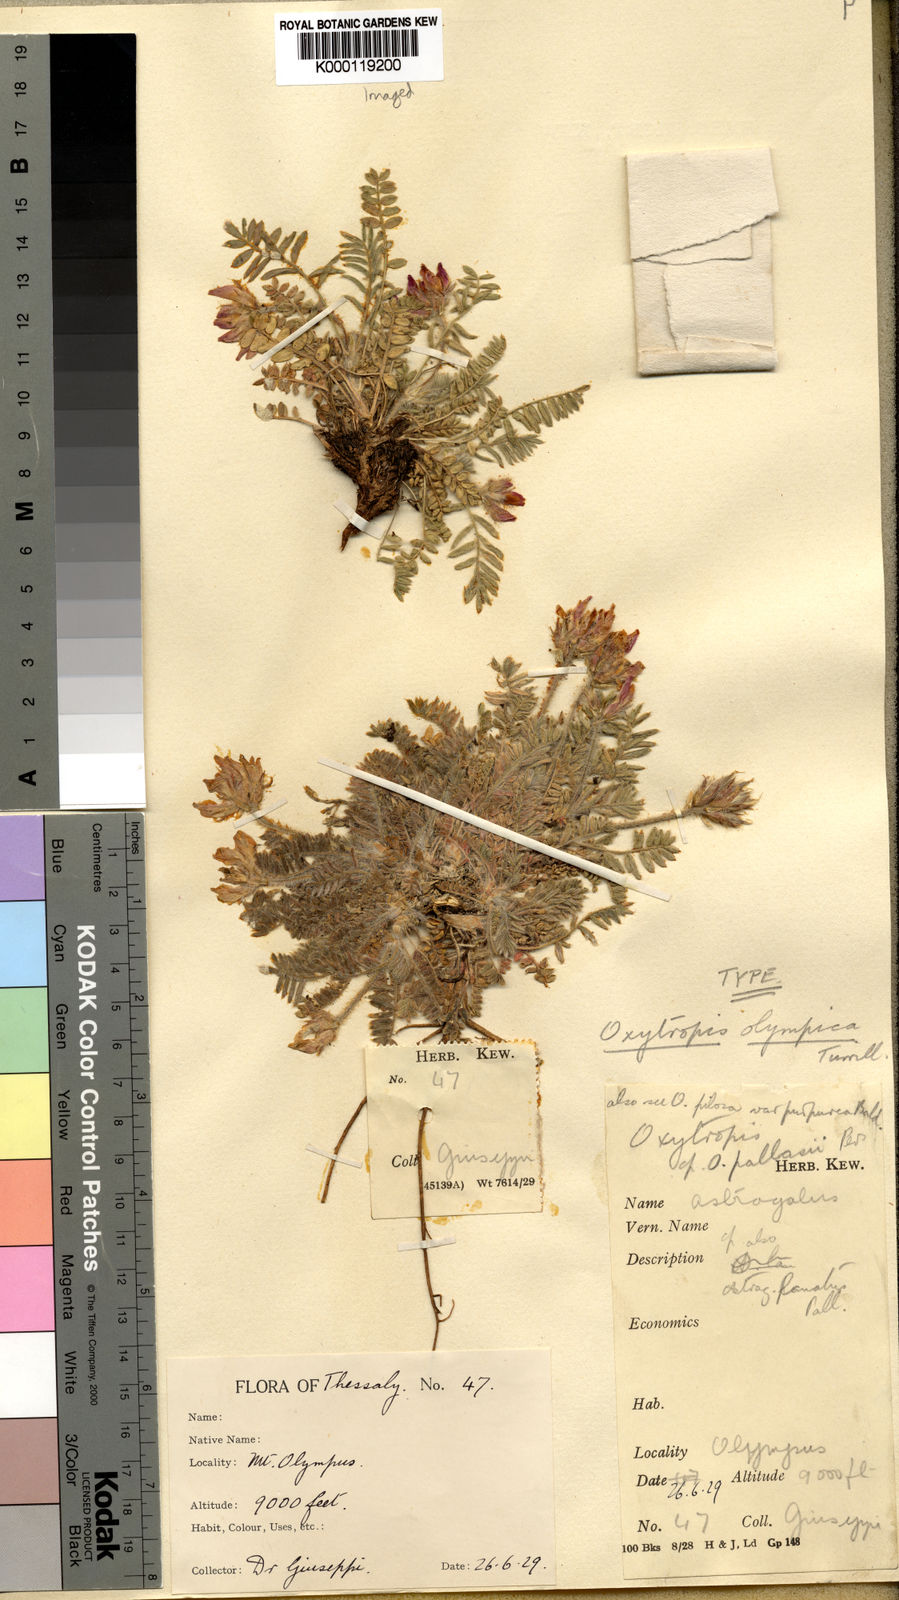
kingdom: Plantae
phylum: Tracheophyta
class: Magnoliopsida
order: Fabales
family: Fabaceae
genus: Oxytropis
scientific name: Oxytropis purpurea
